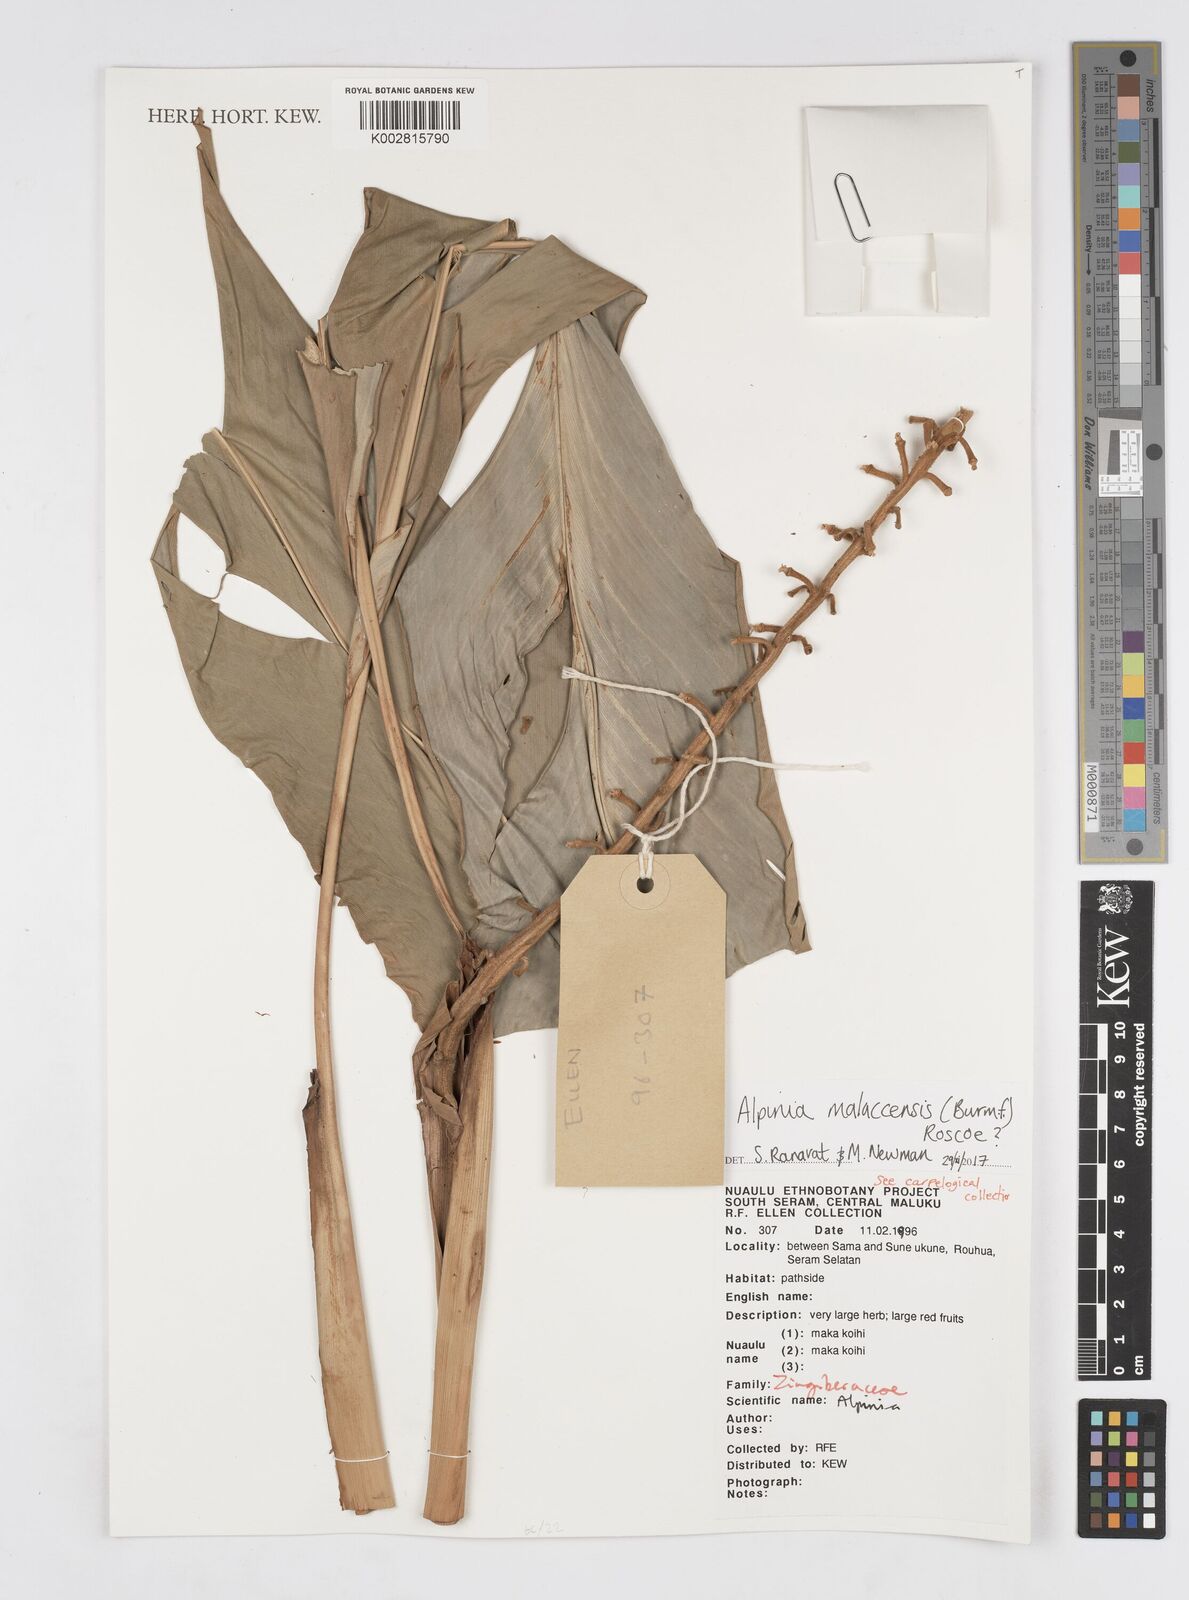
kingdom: Plantae
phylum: Tracheophyta
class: Liliopsida
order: Zingiberales
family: Zingiberaceae
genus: Alpinia
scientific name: Alpinia malaccensis
